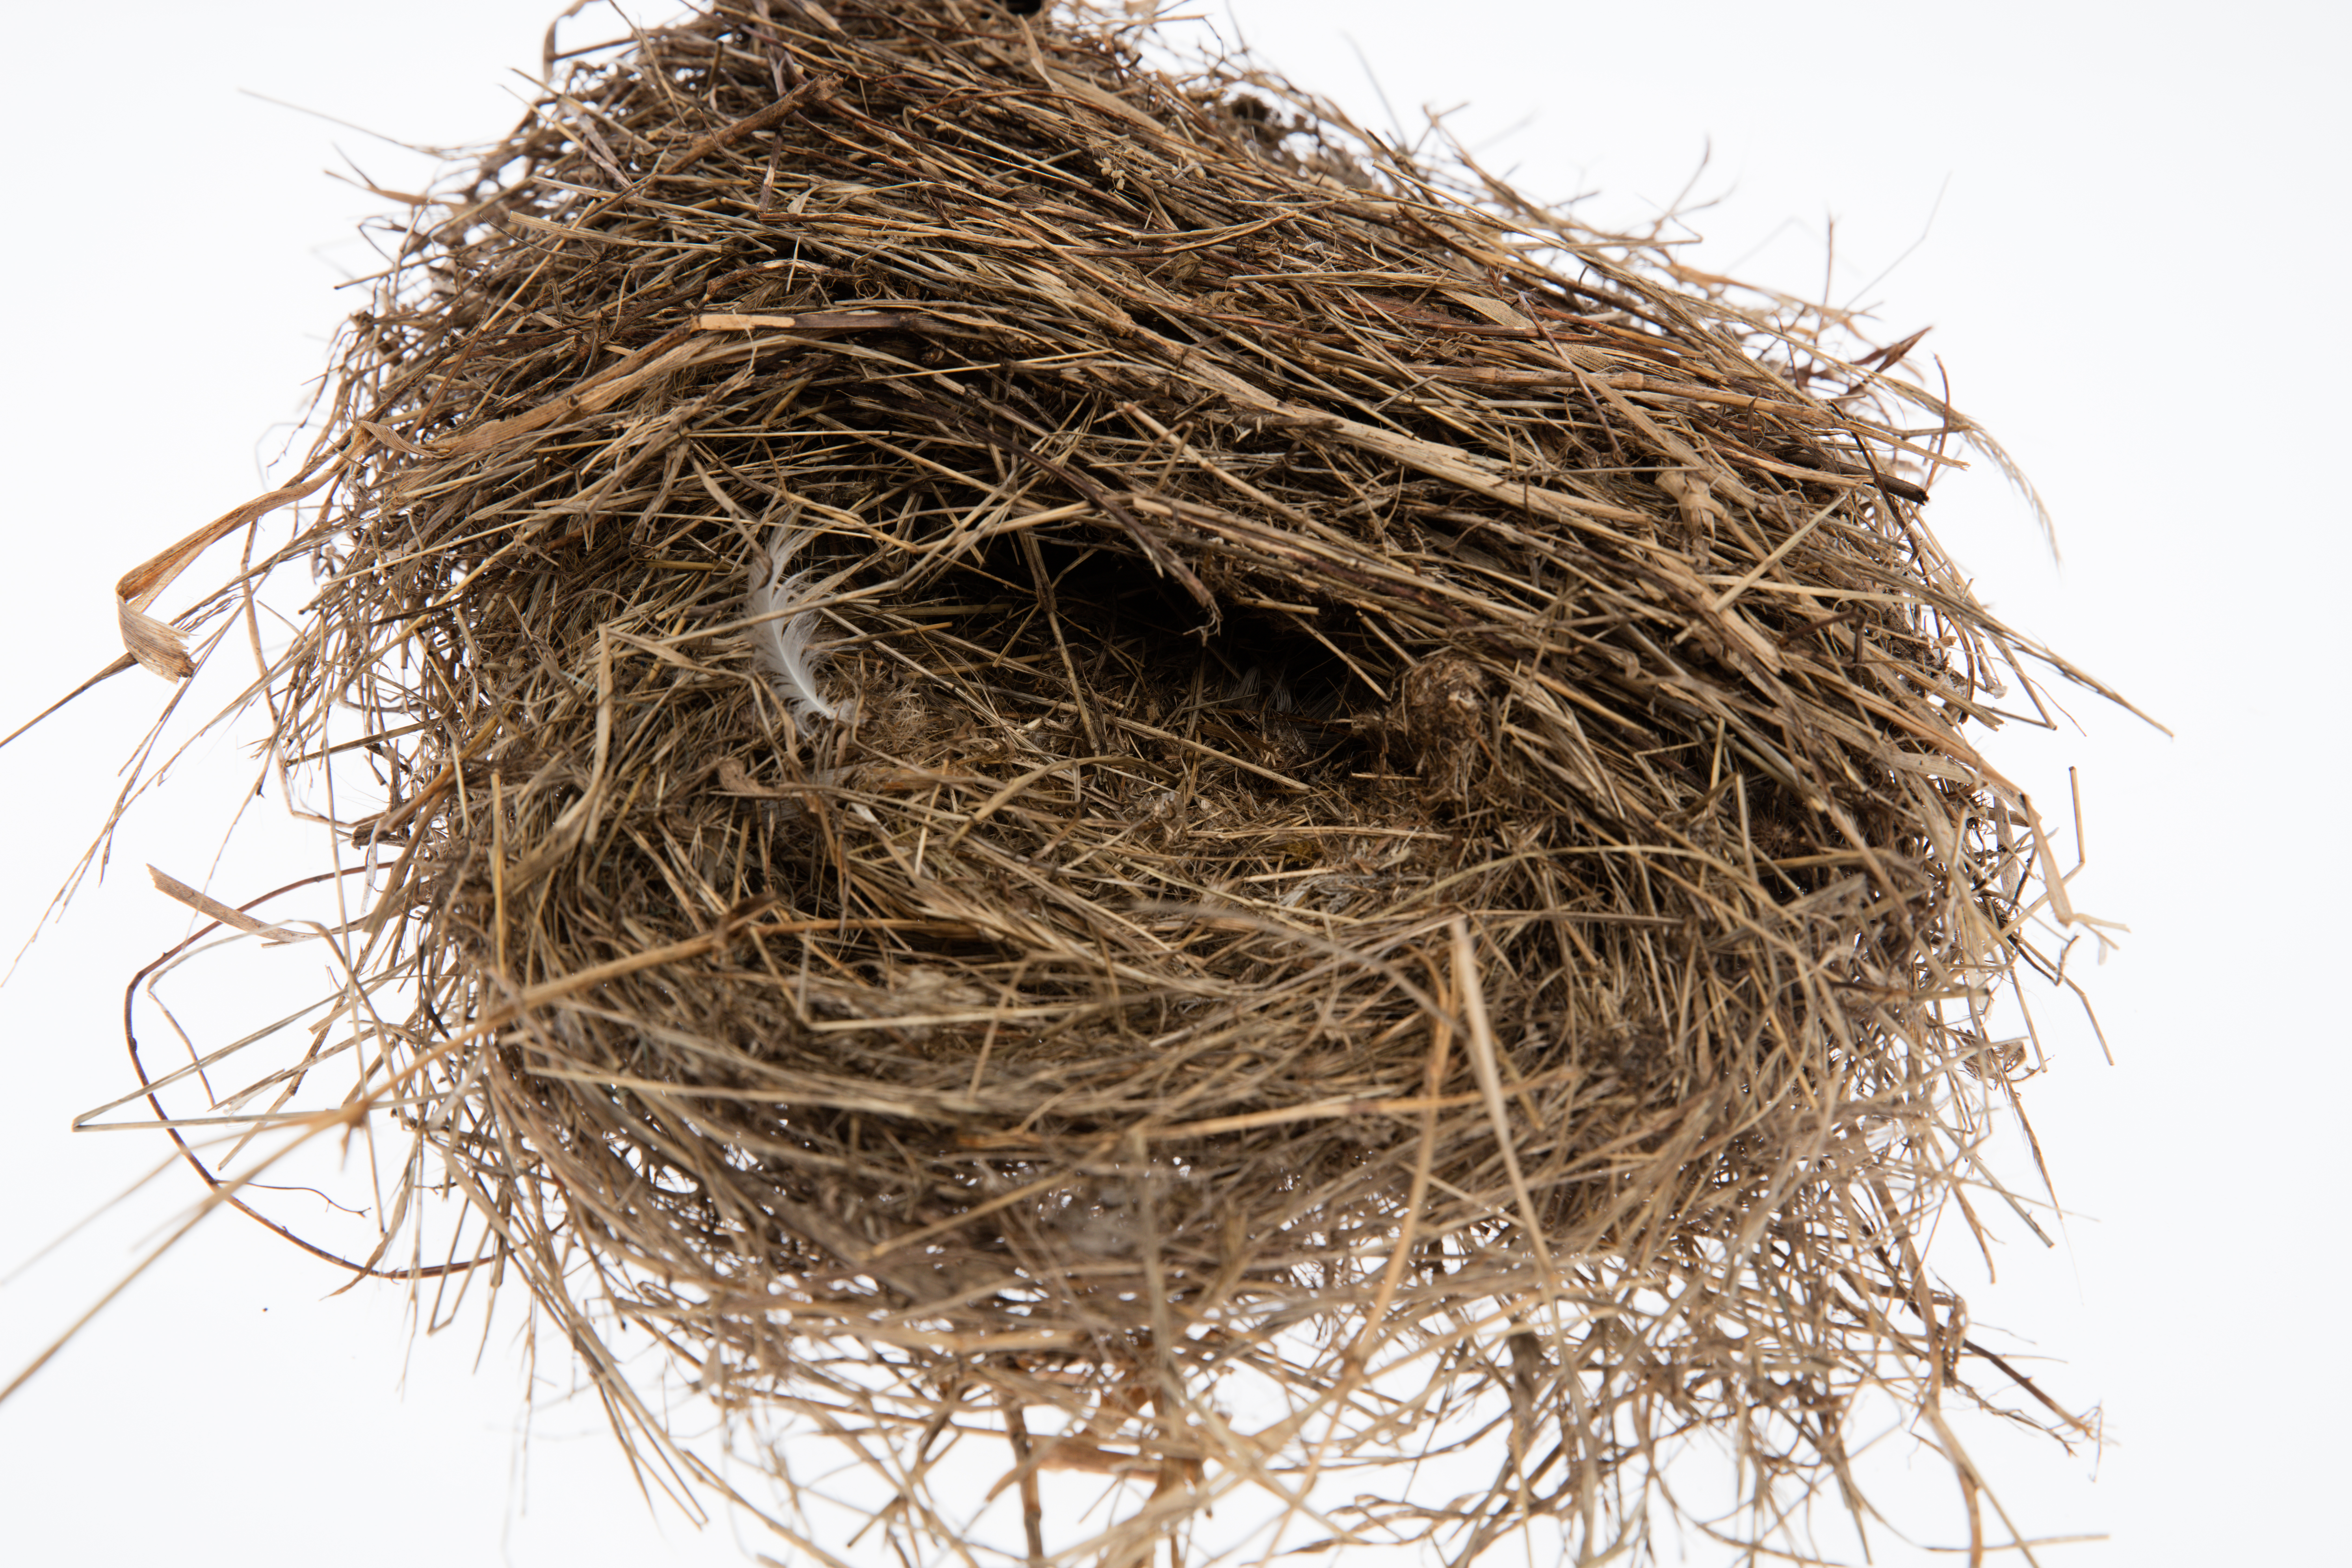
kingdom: Animalia
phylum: Chordata
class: Aves
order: Passeriformes
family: Passeridae
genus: Passer
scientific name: Passer domesticus
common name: House sparrow
